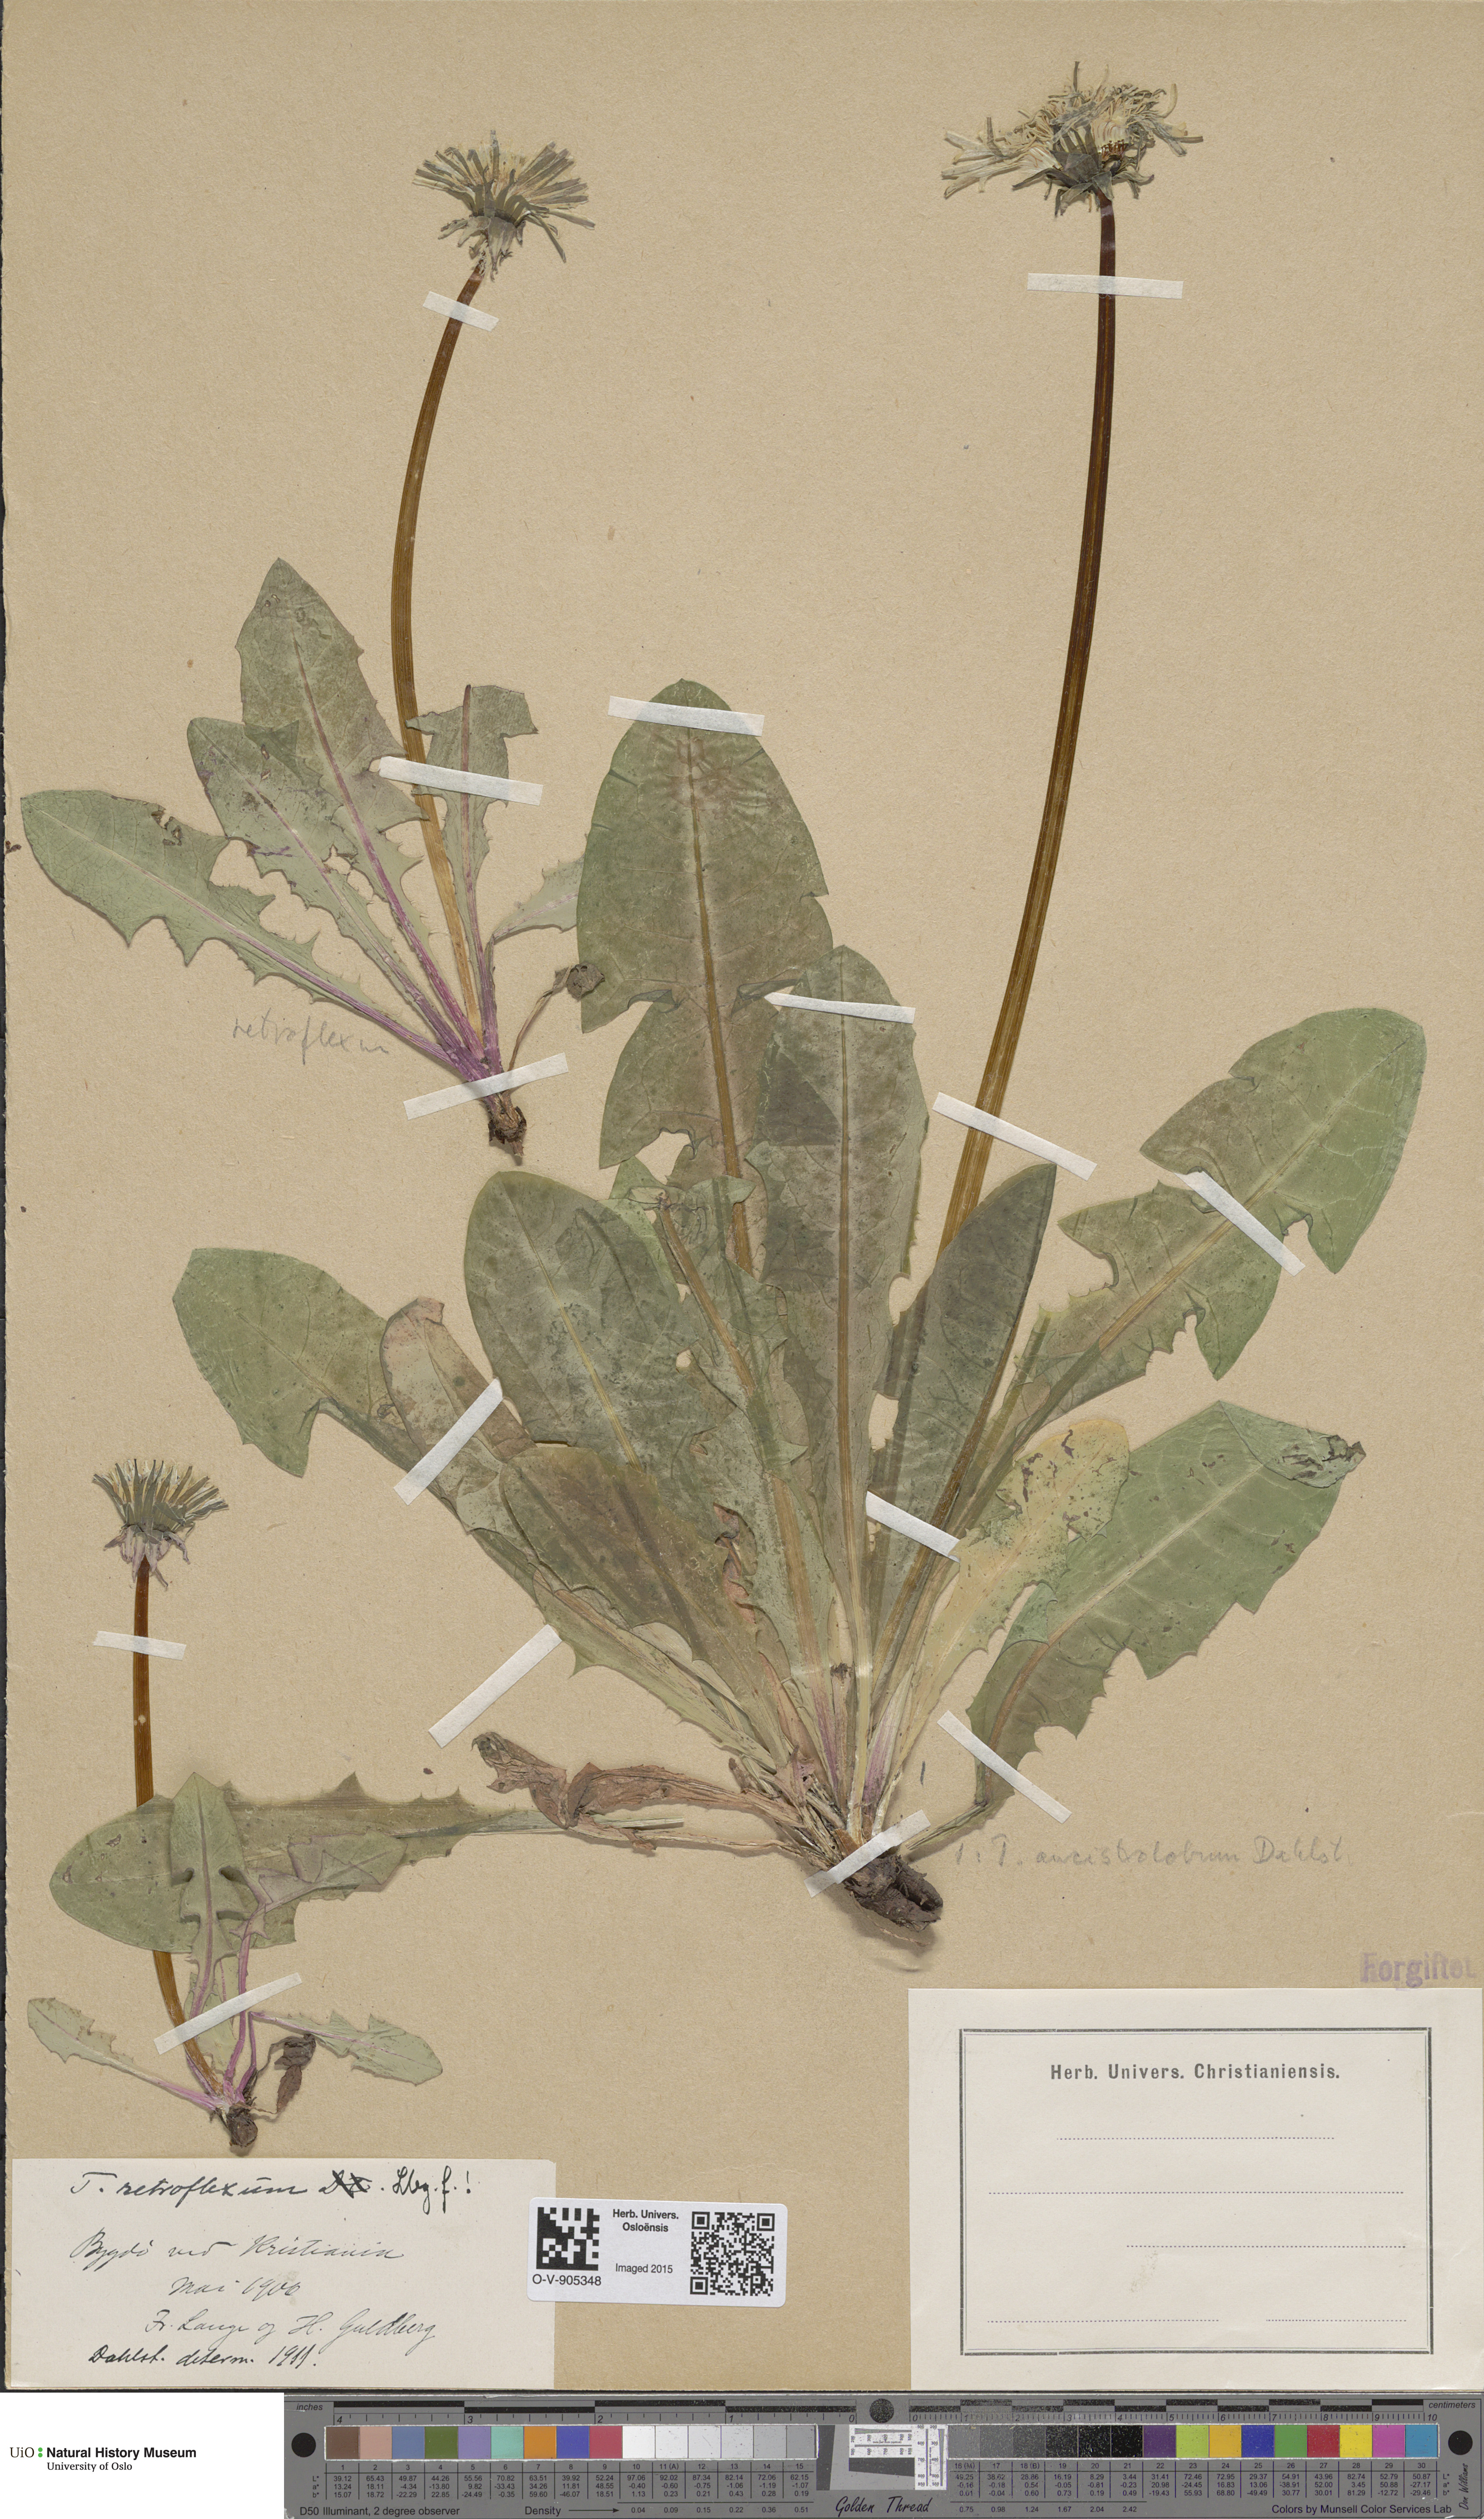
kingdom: Plantae
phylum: Tracheophyta
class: Magnoliopsida
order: Asterales
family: Asteraceae
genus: Taraxacum
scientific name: Taraxacum retroflexum
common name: Reflexed-lobed dandelion
